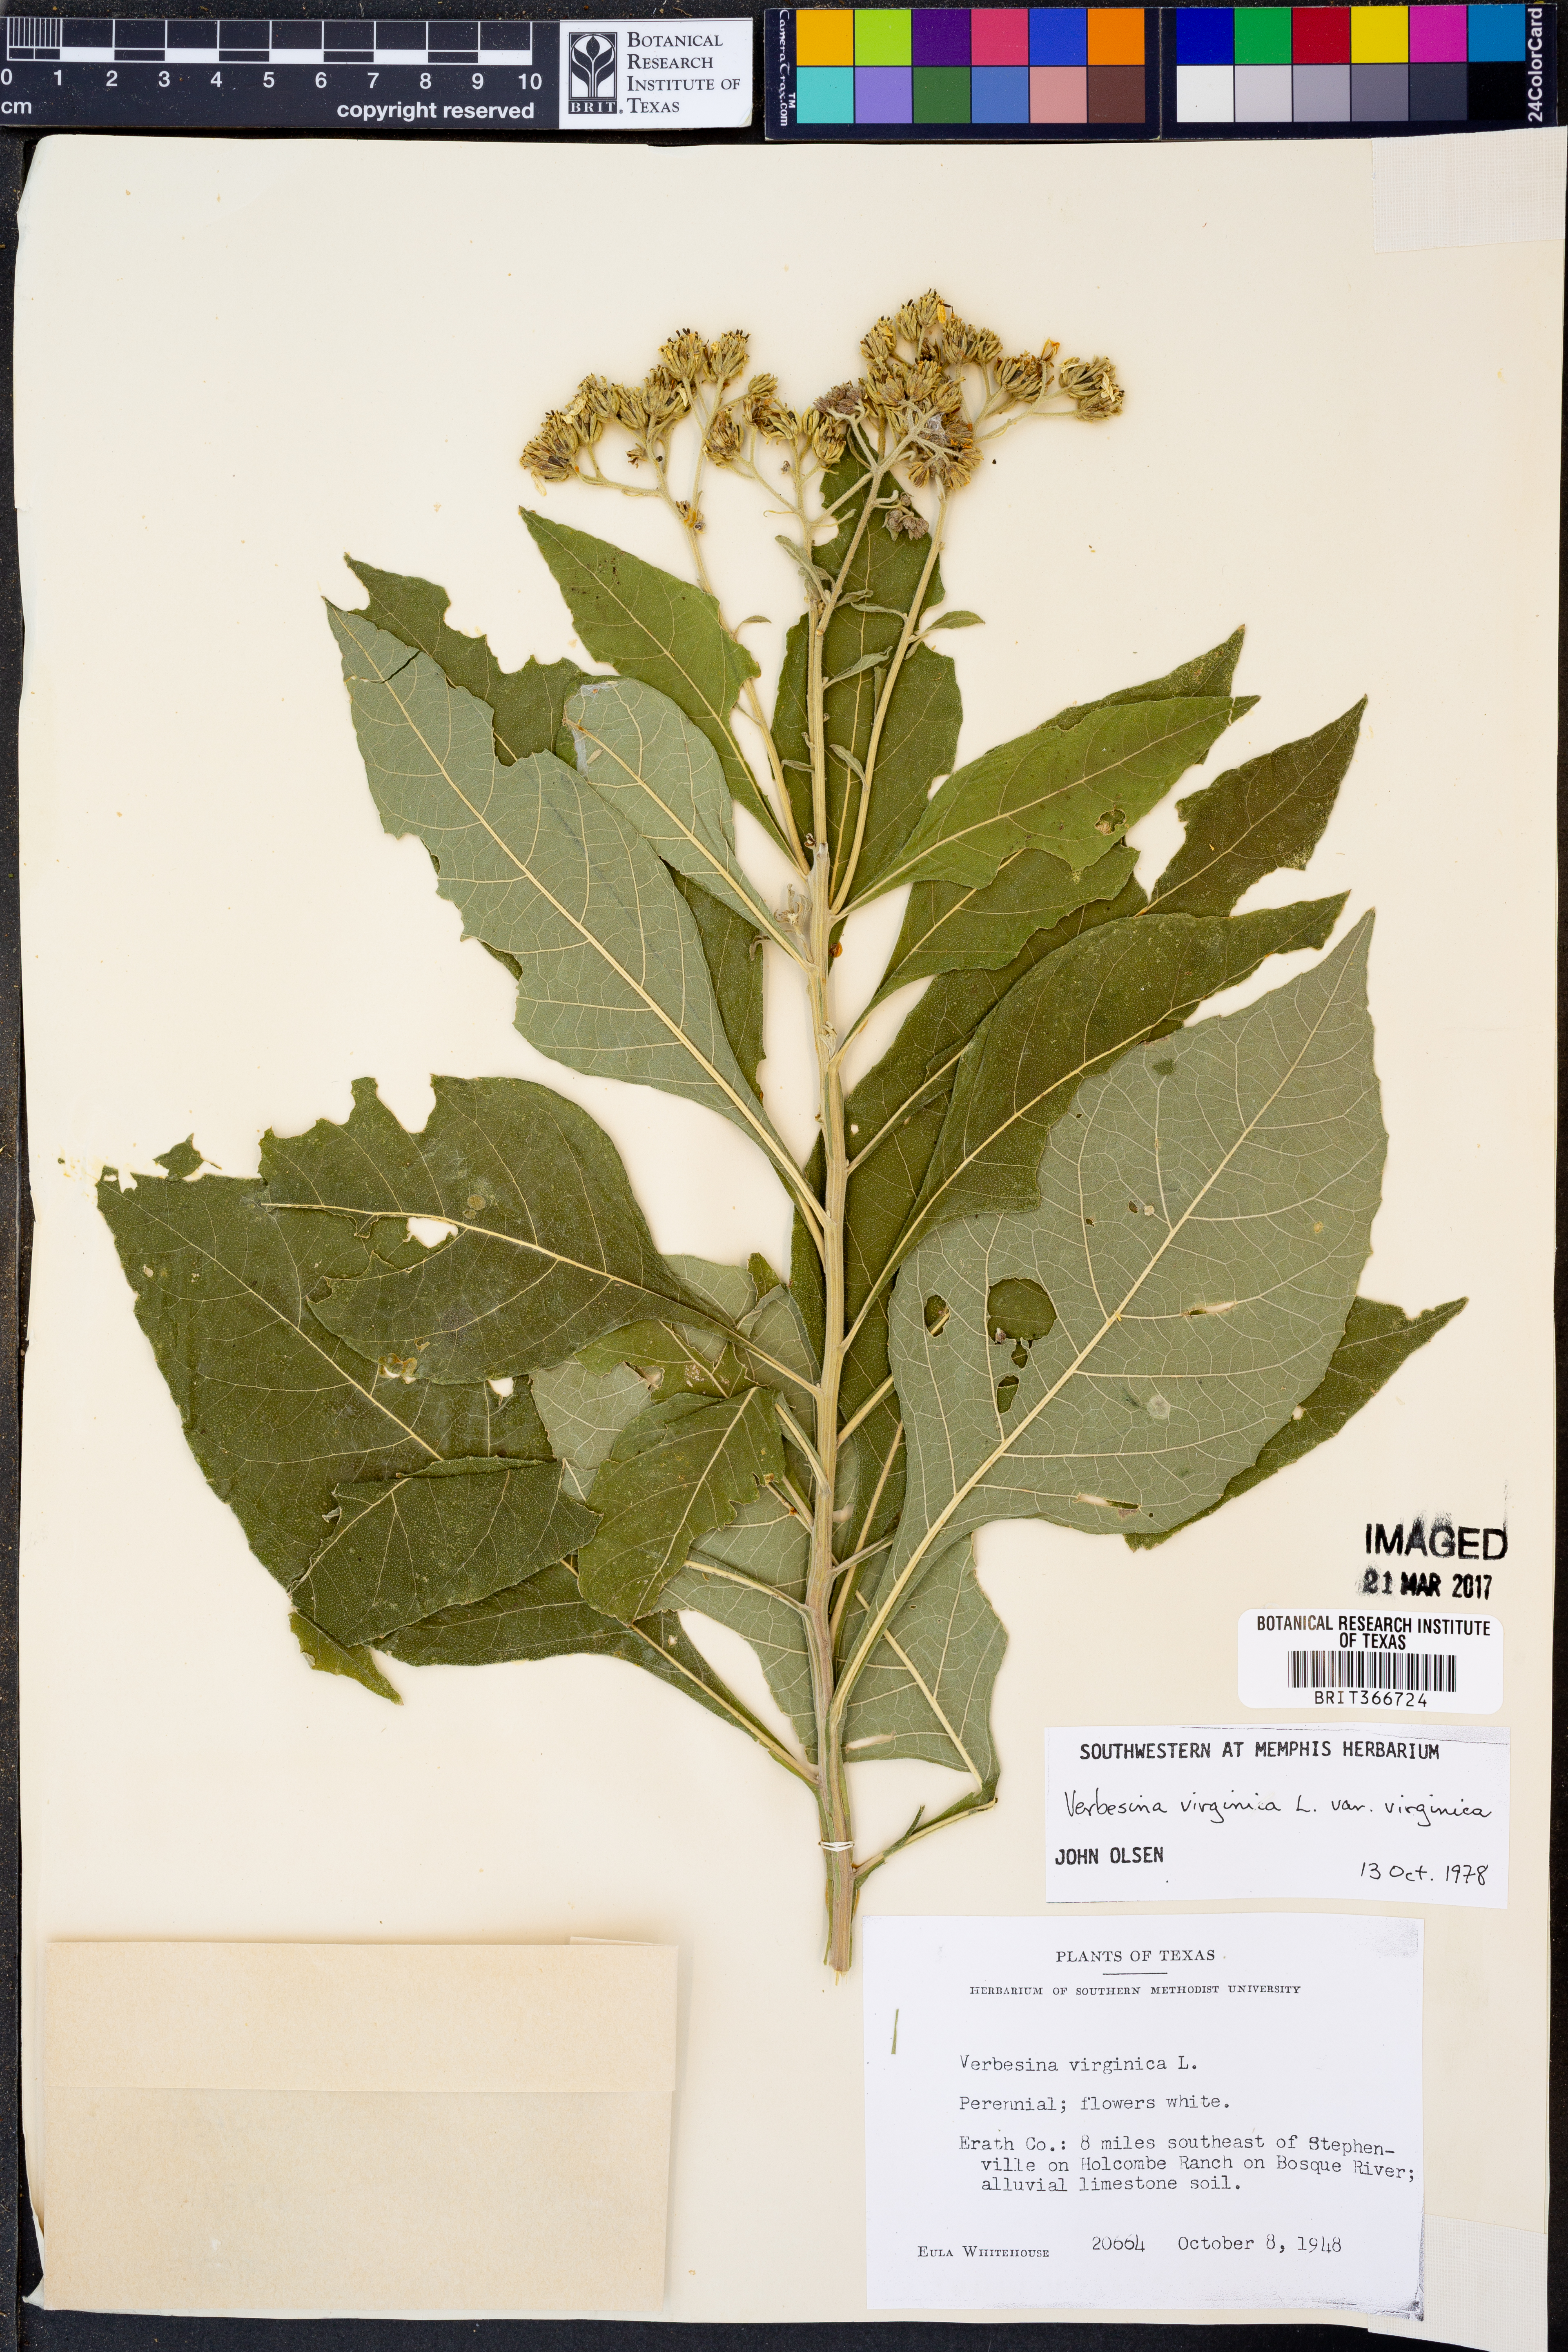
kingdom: Plantae
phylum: Tracheophyta
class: Magnoliopsida
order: Asterales
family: Asteraceae
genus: Verbesina
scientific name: Verbesina virginica
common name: Frostweed
